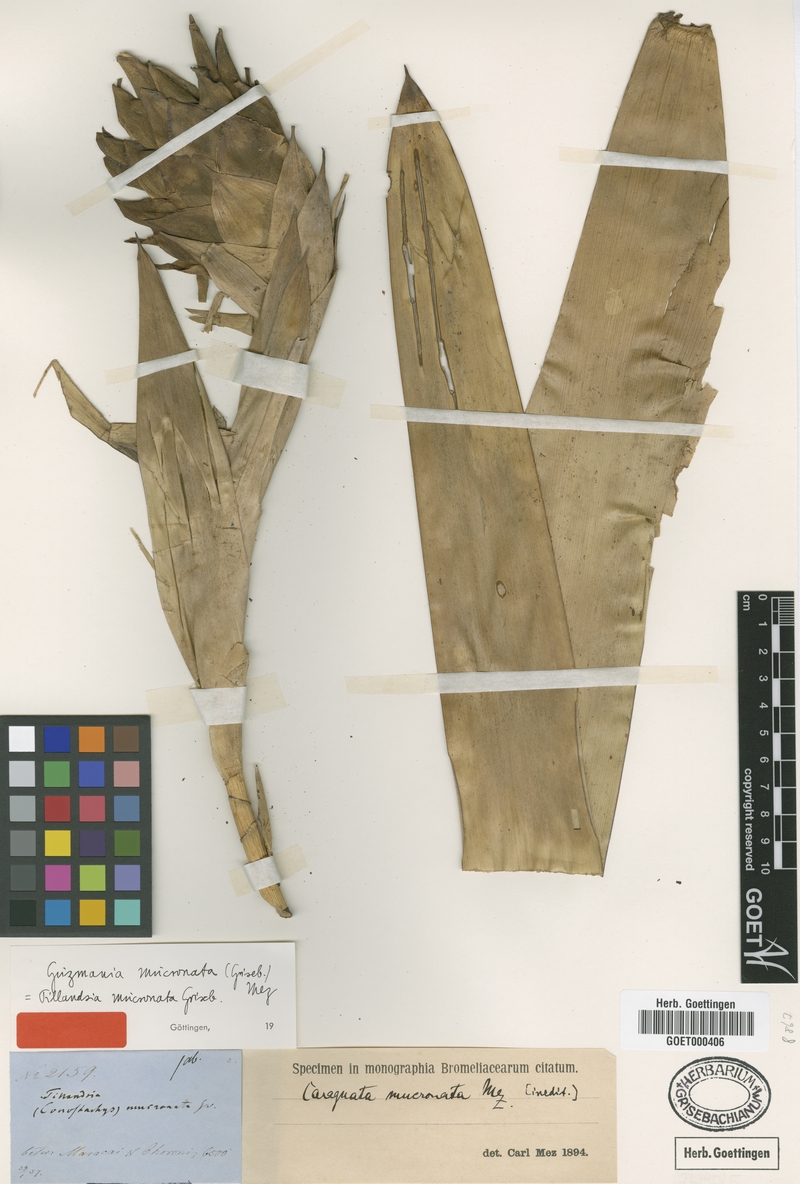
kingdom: Plantae
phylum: Tracheophyta
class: Liliopsida
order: Poales
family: Bromeliaceae
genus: Guzmania
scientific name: Guzmania mucronata
